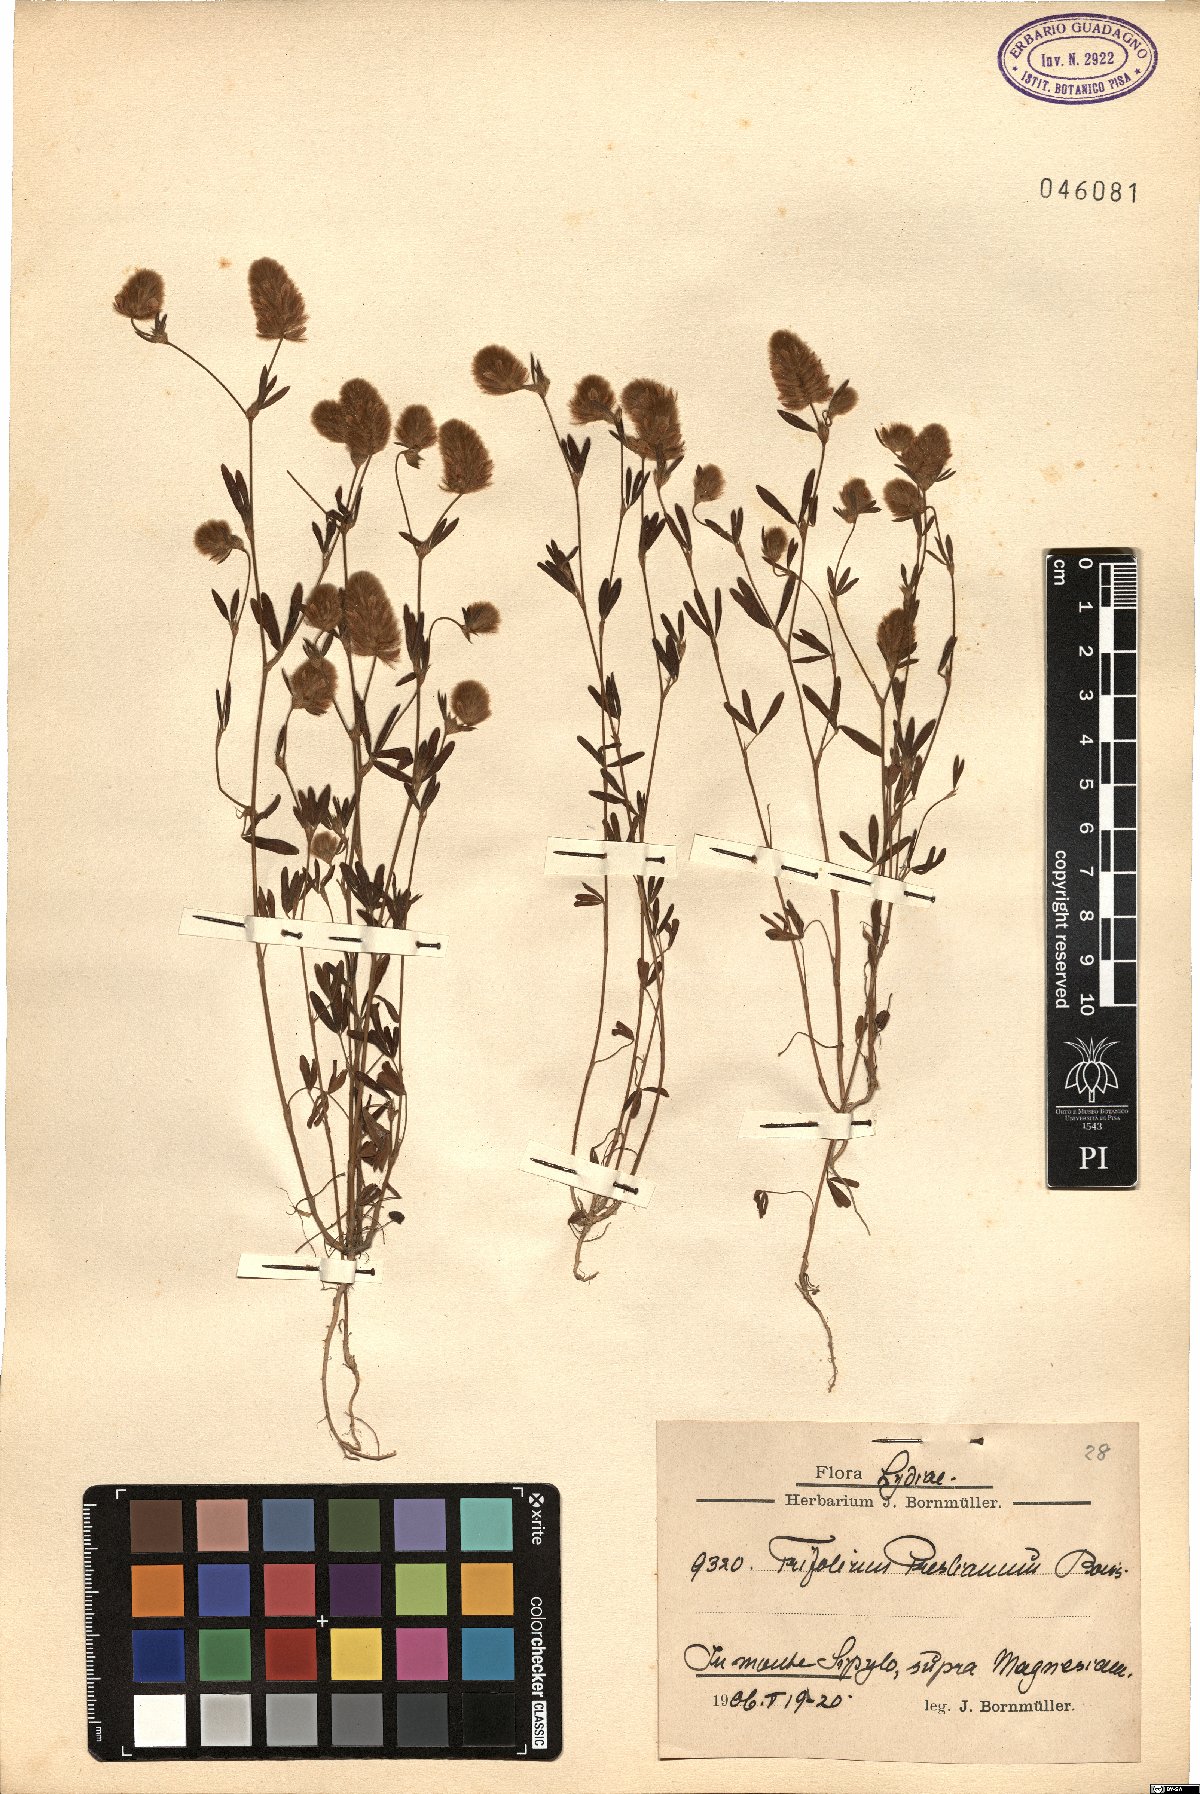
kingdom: Plantae
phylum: Tracheophyta
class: Magnoliopsida
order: Fabales
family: Fabaceae
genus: Trifolium
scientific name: Trifolium arvense
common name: Hare's-foot clover
